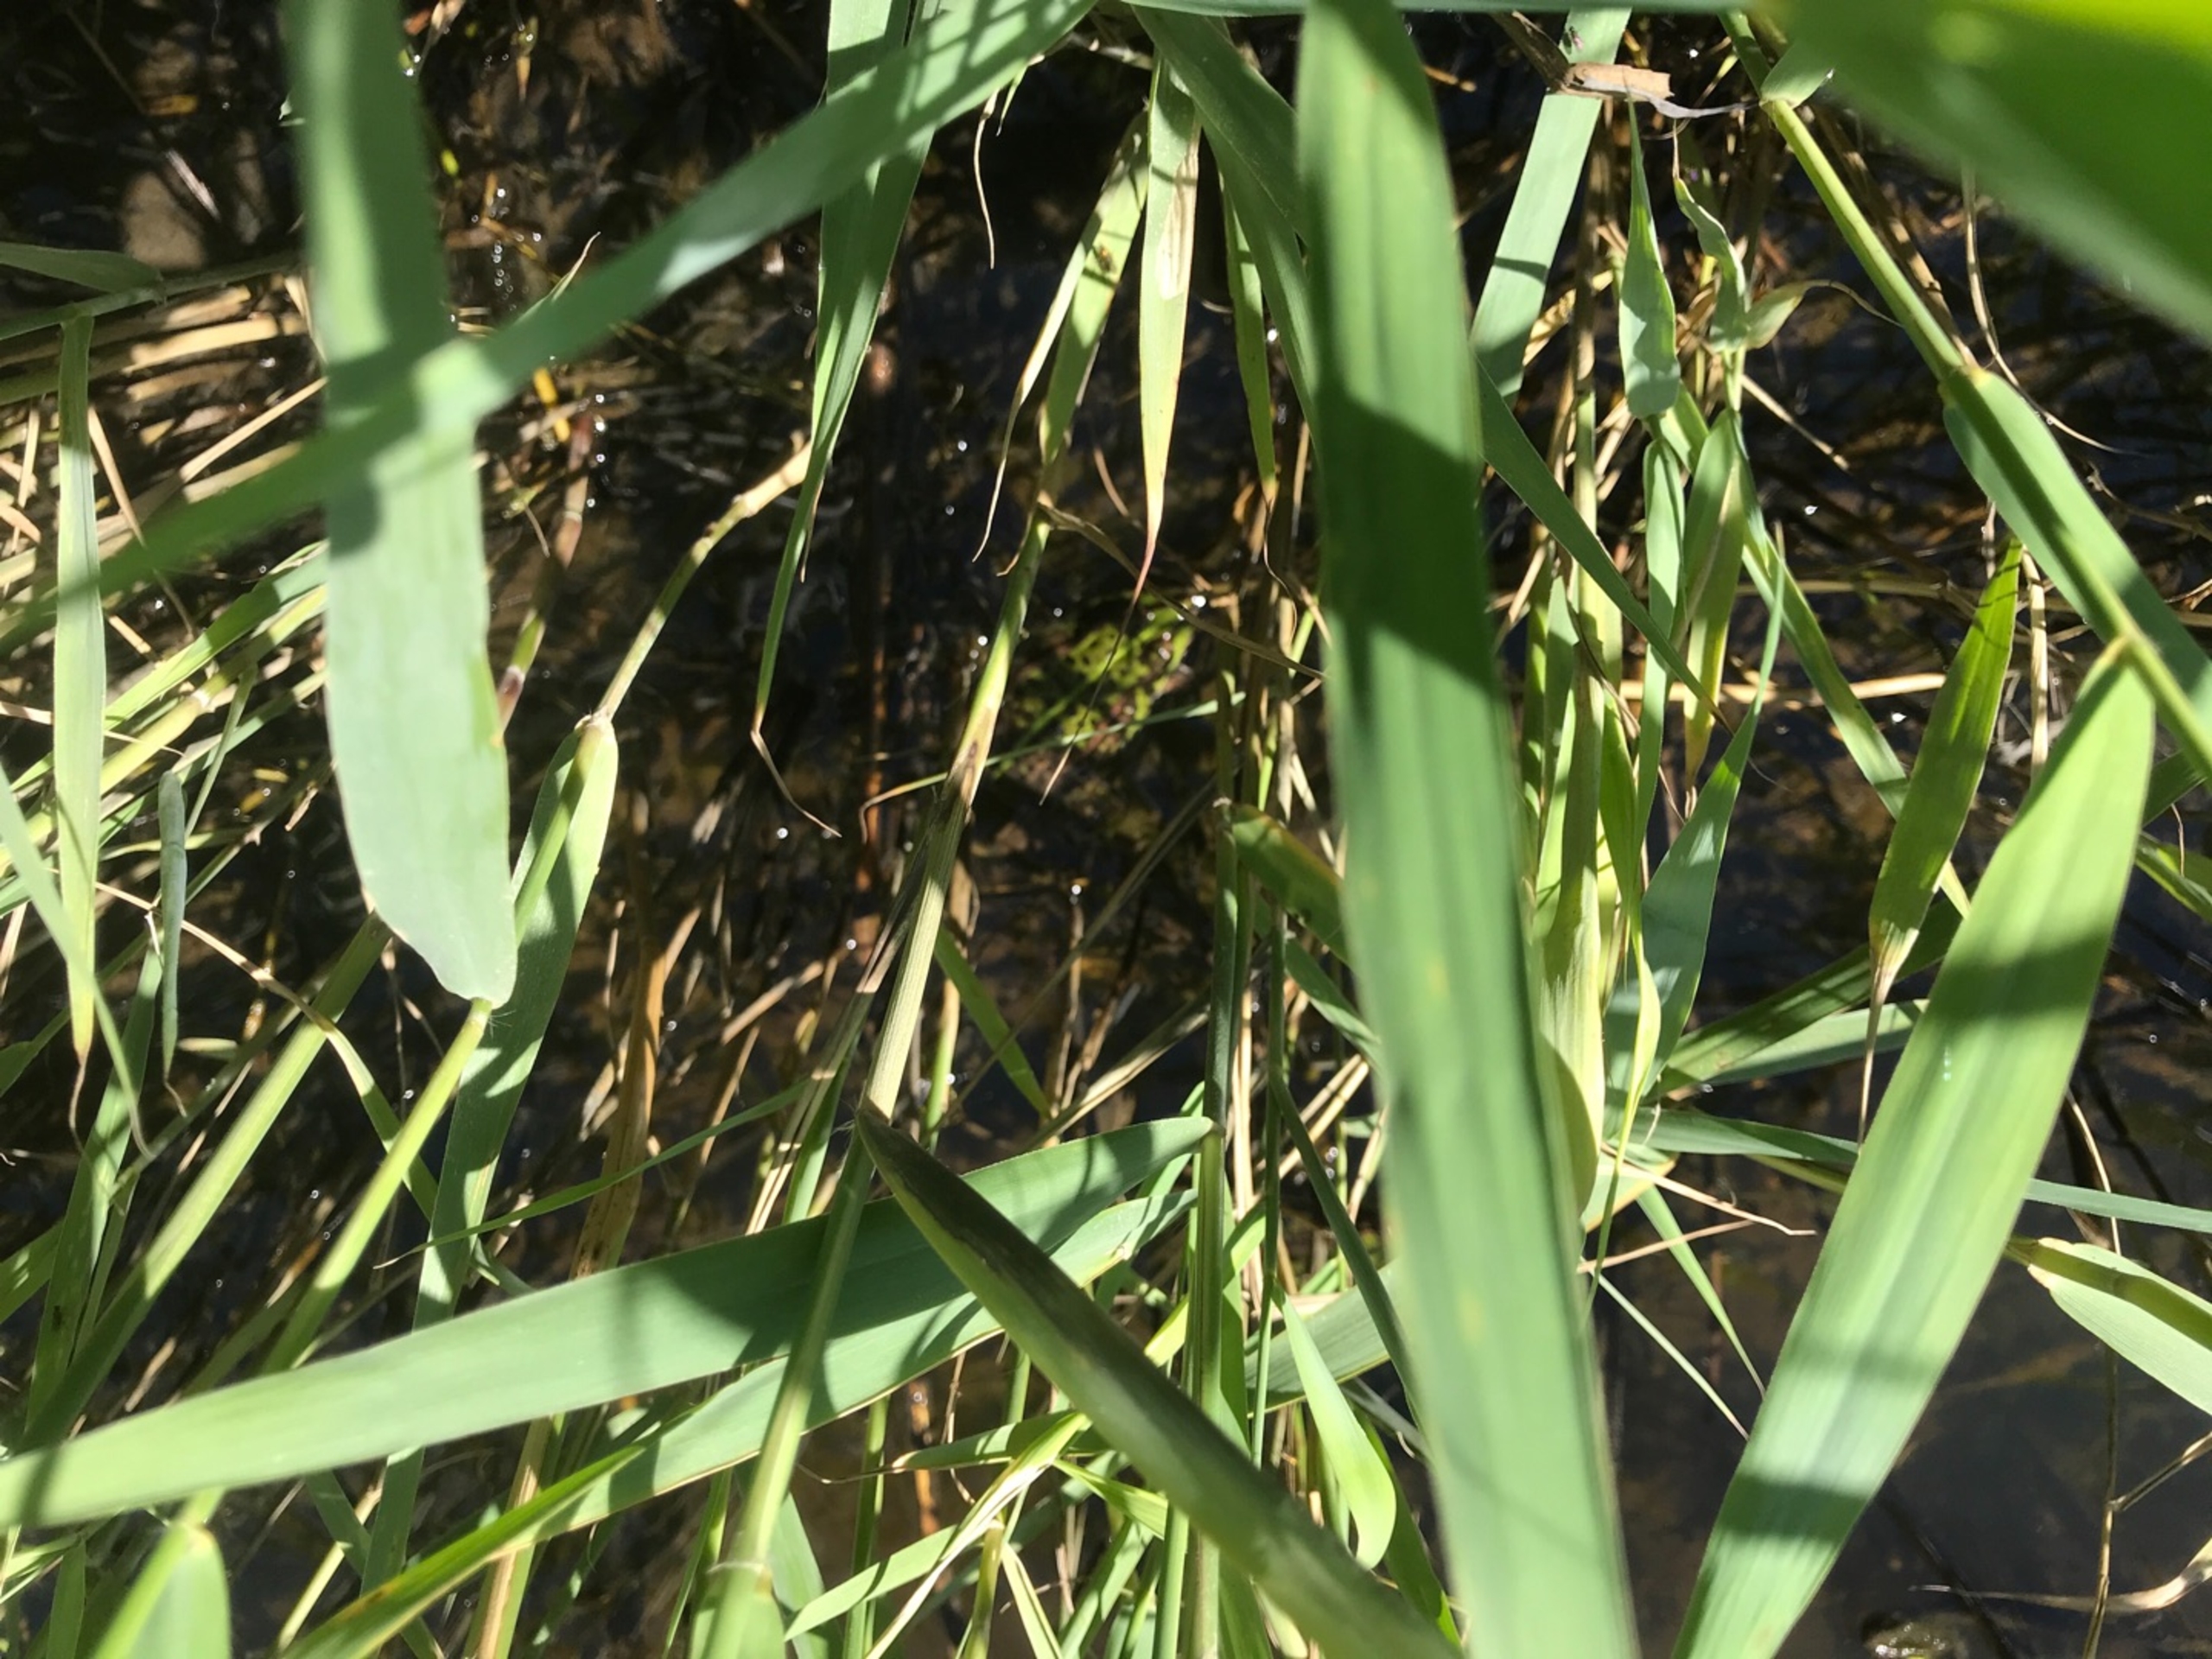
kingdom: Animalia
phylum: Chordata
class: Amphibia
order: Anura
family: Ranidae
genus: Pelophylax
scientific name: Pelophylax lessonae
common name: Grøn frø
